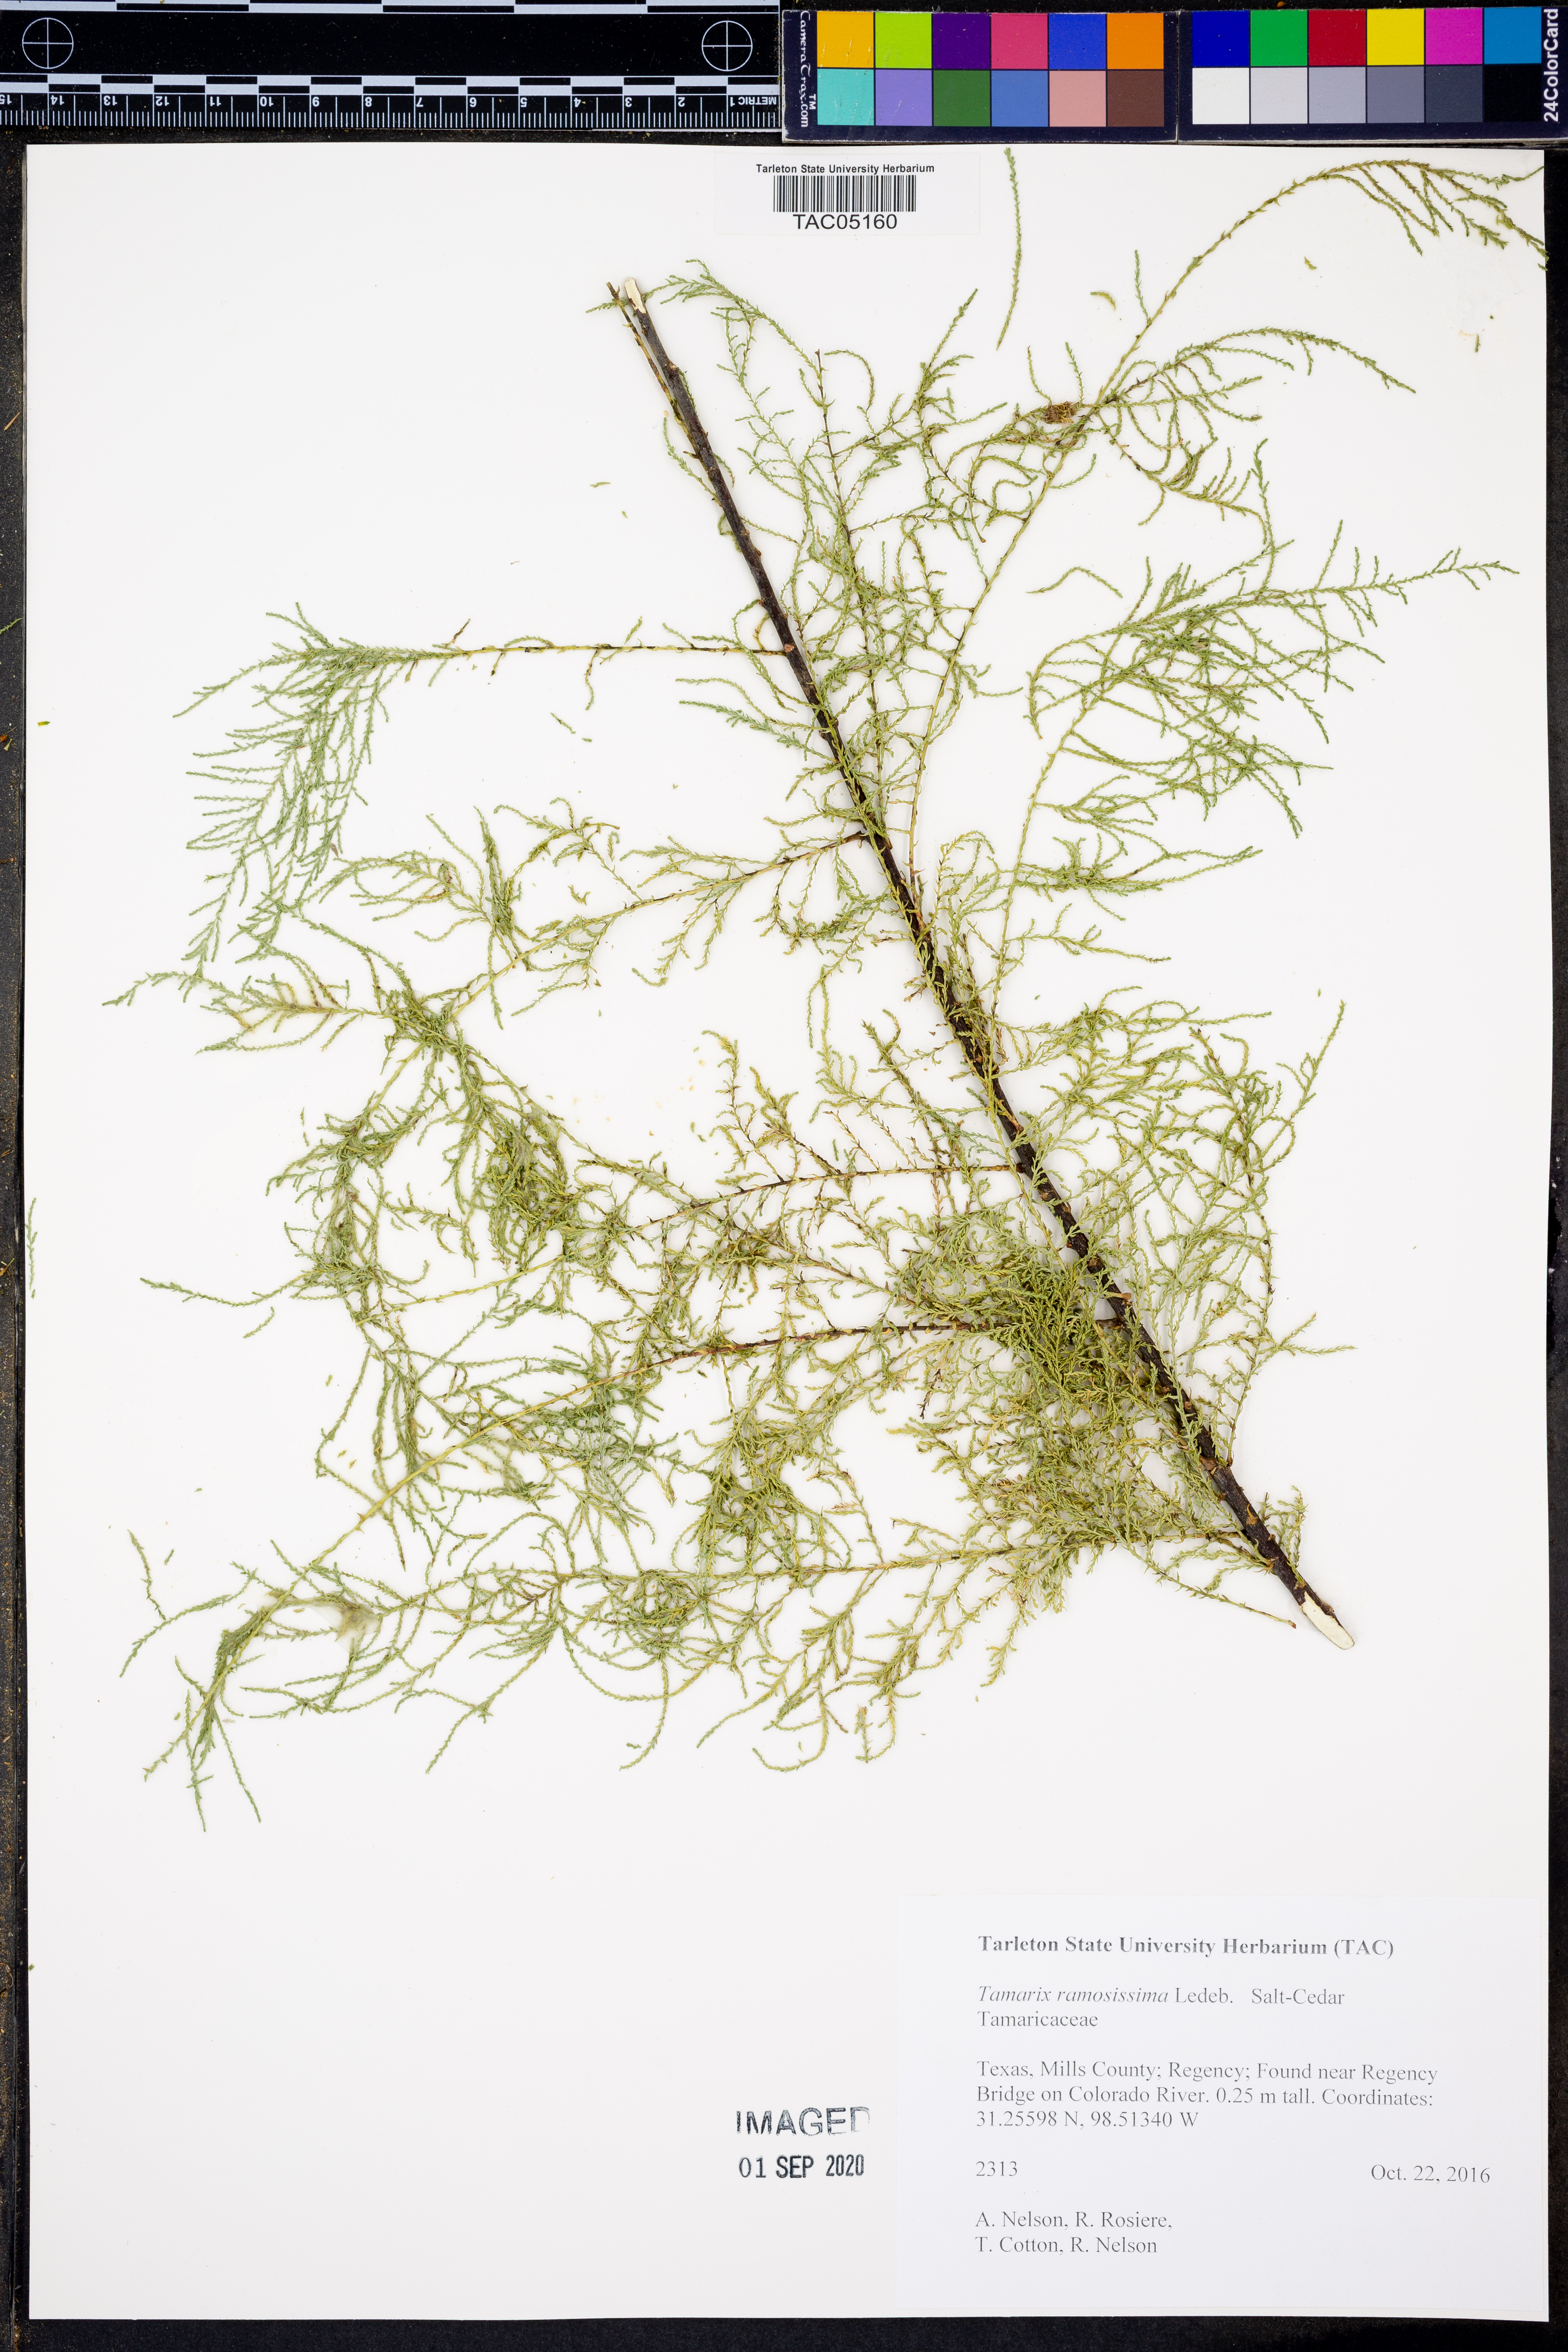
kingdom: Plantae
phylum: Tracheophyta
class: Magnoliopsida
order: Caryophyllales
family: Tamaricaceae
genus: Tamarix
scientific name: Tamarix ramosissima
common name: Pink tamarisk
